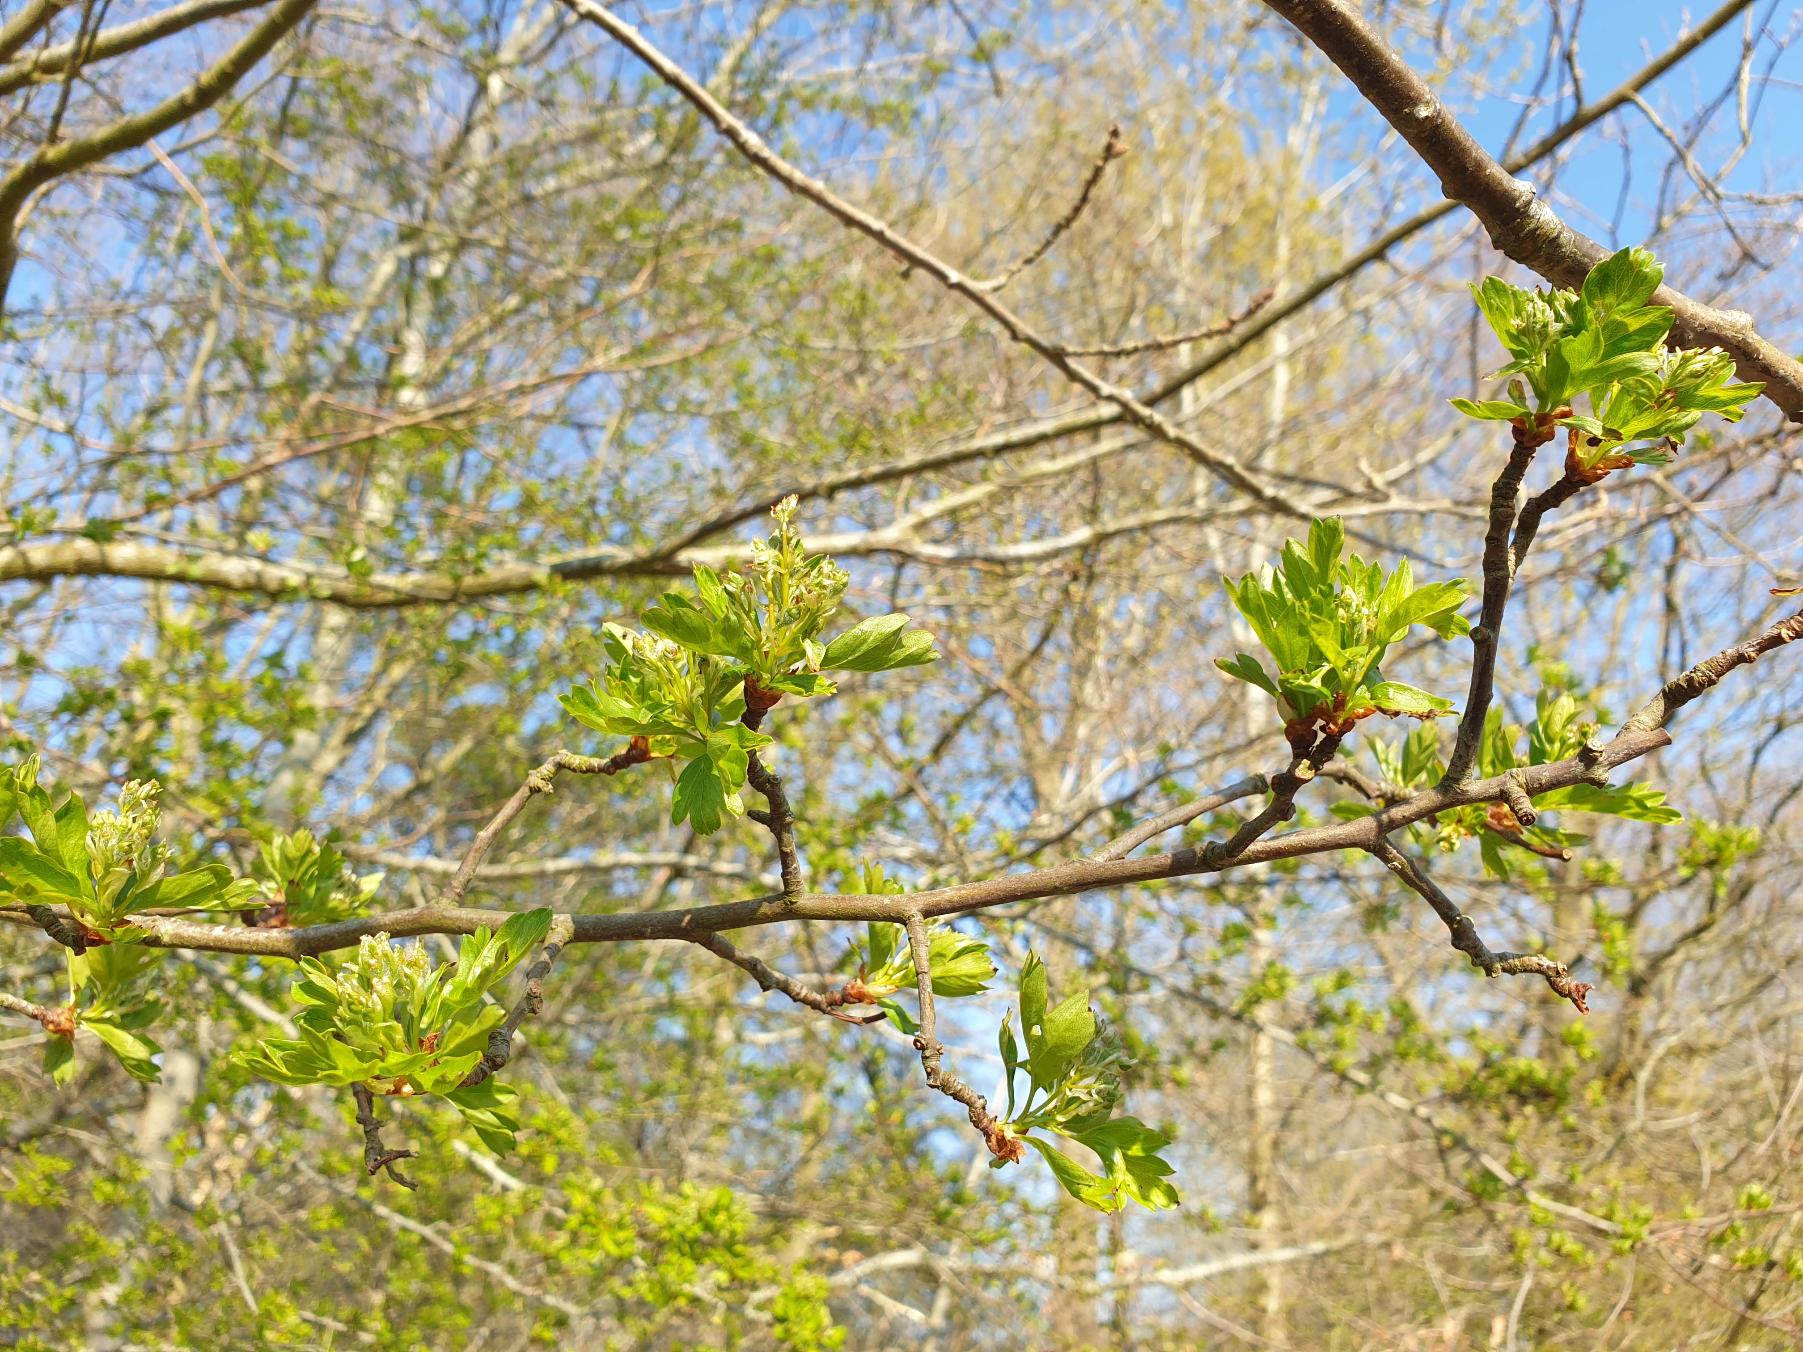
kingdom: Plantae
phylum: Tracheophyta
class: Magnoliopsida
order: Rosales
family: Rosaceae
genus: Crataegus
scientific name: Crataegus monogyna
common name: Engriflet hvidtjørn
